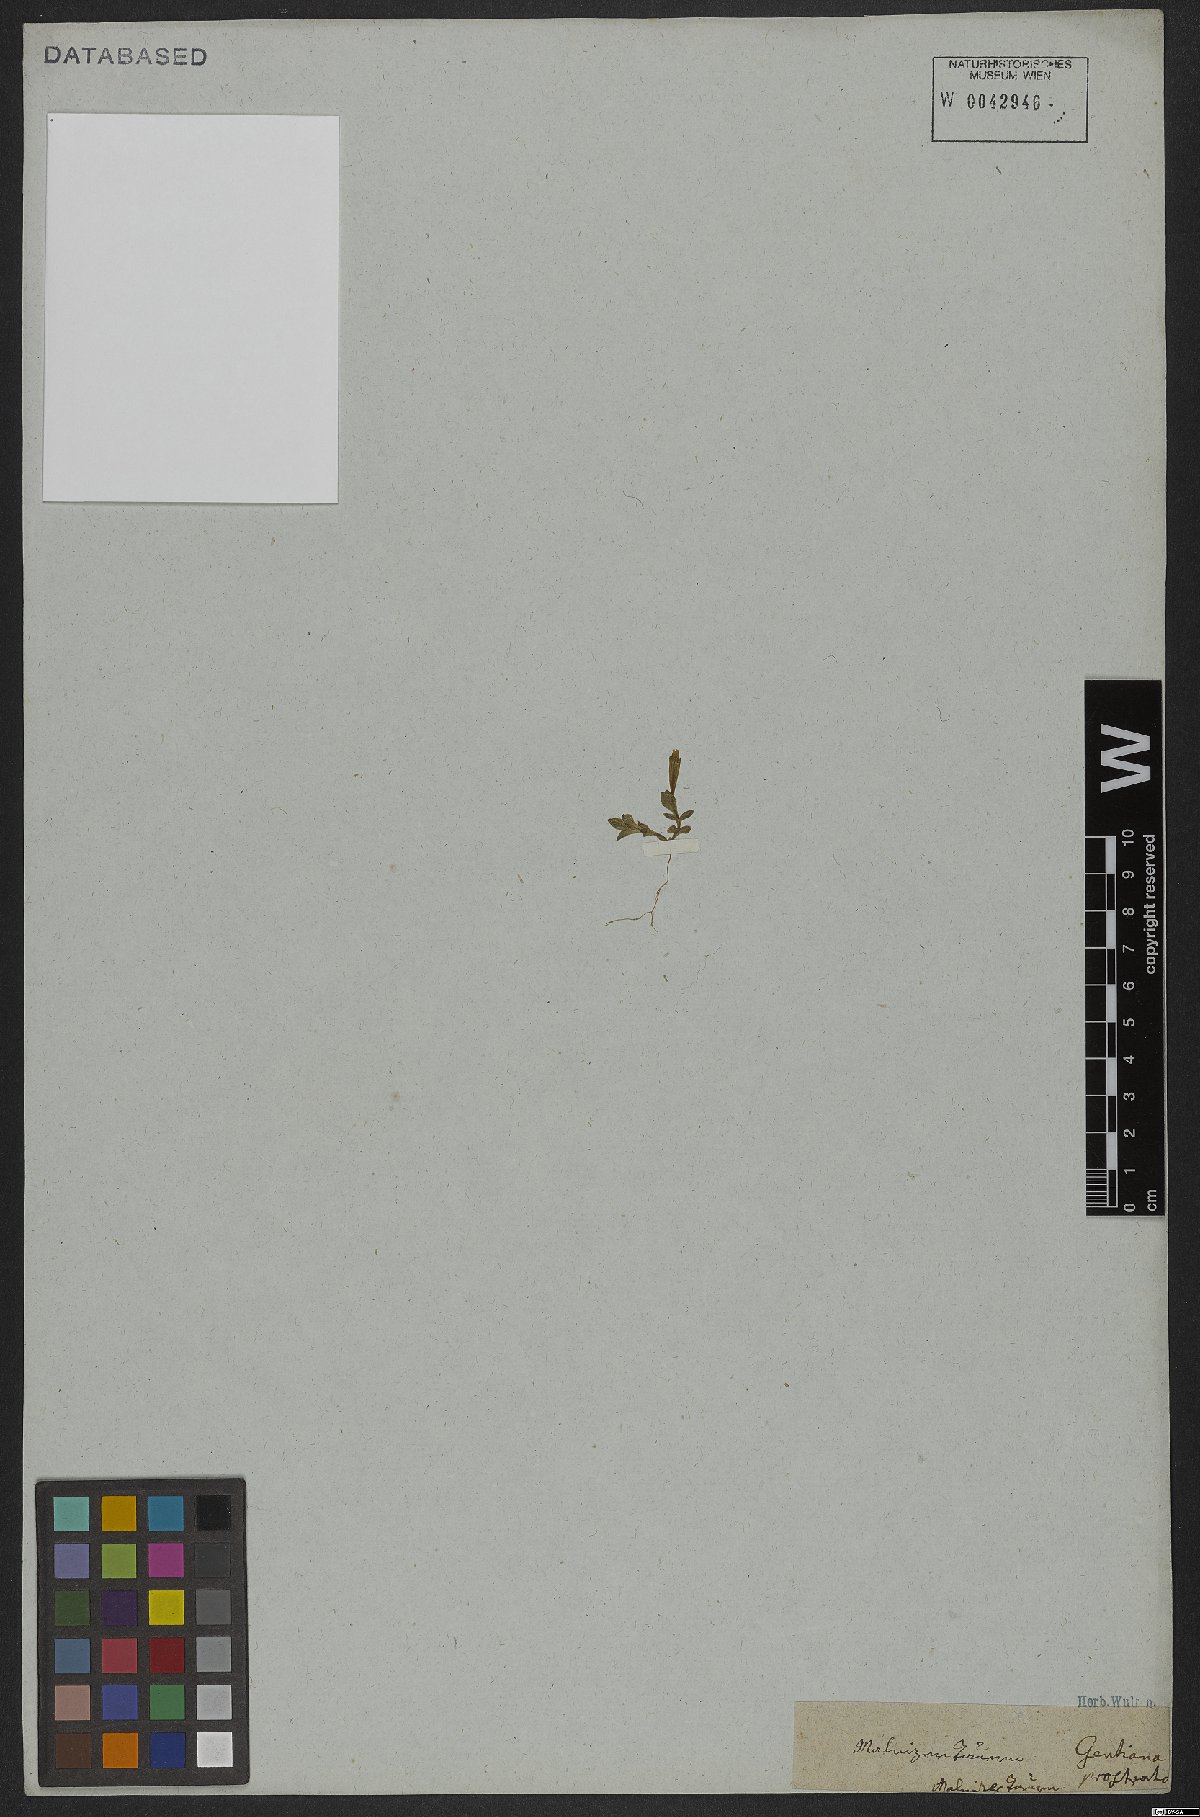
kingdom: Plantae
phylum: Tracheophyta
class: Magnoliopsida
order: Gentianales
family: Gentianaceae
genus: Gentiana
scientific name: Gentiana prostrata
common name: Moss gentian
